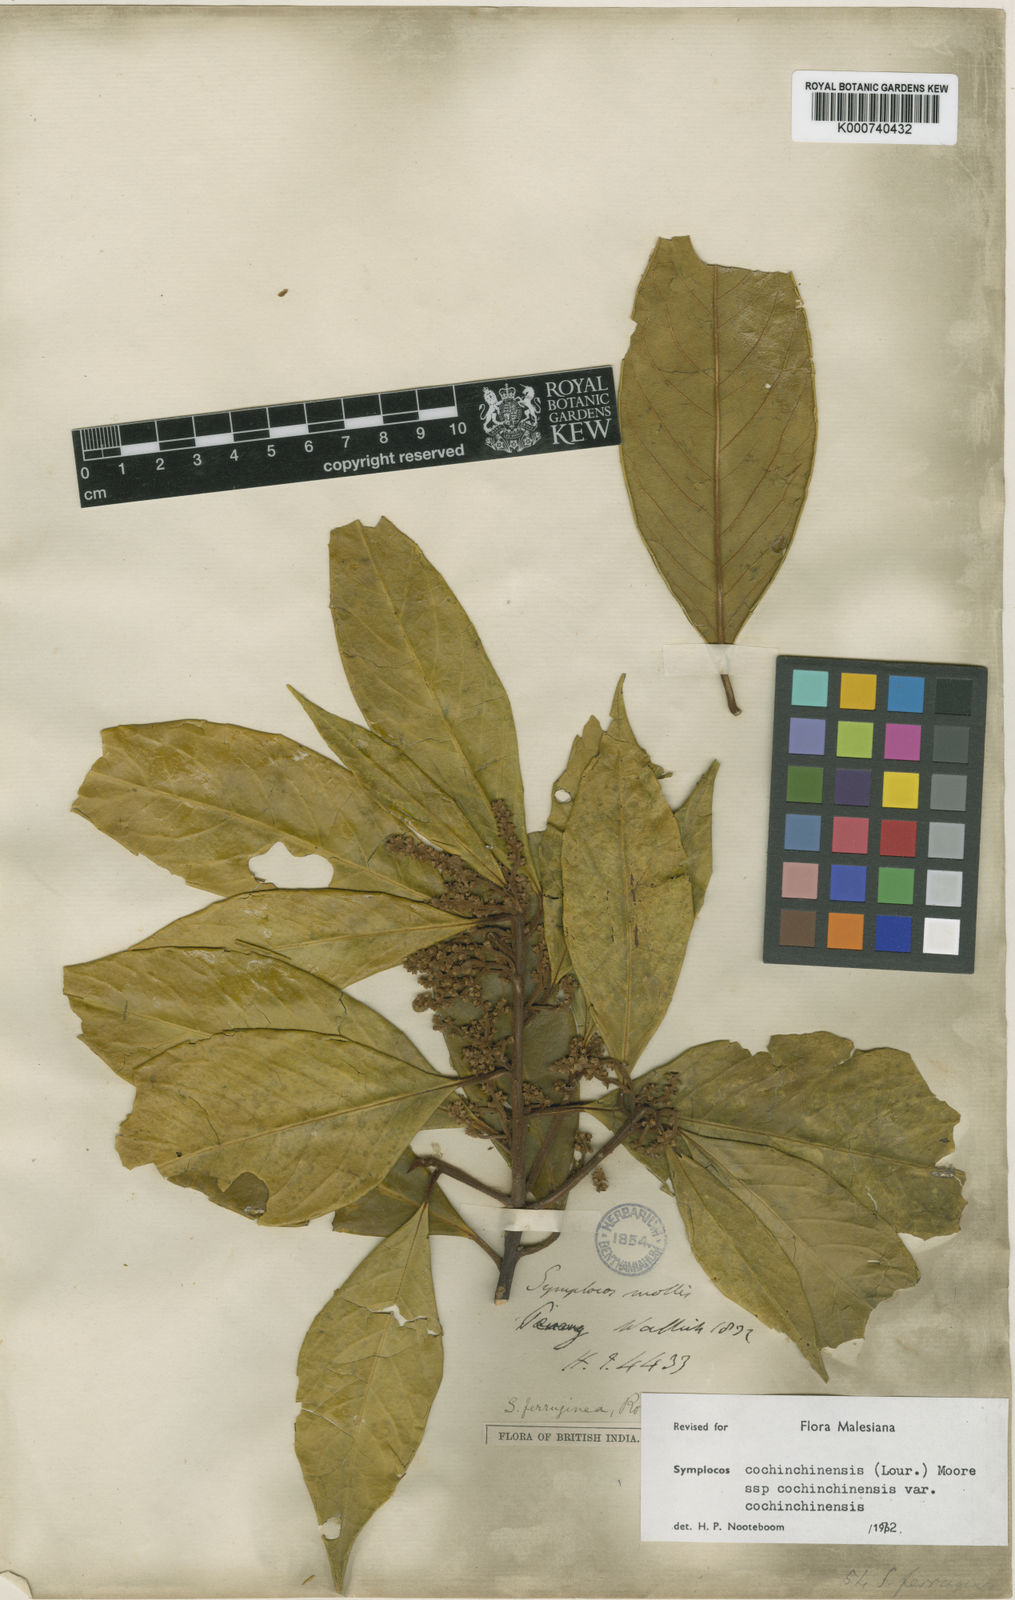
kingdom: Plantae
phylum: Tracheophyta
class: Magnoliopsida
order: Ericales
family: Symplocaceae
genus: Symplocos
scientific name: Symplocos cochinchinensis
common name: Buff hazelwood
